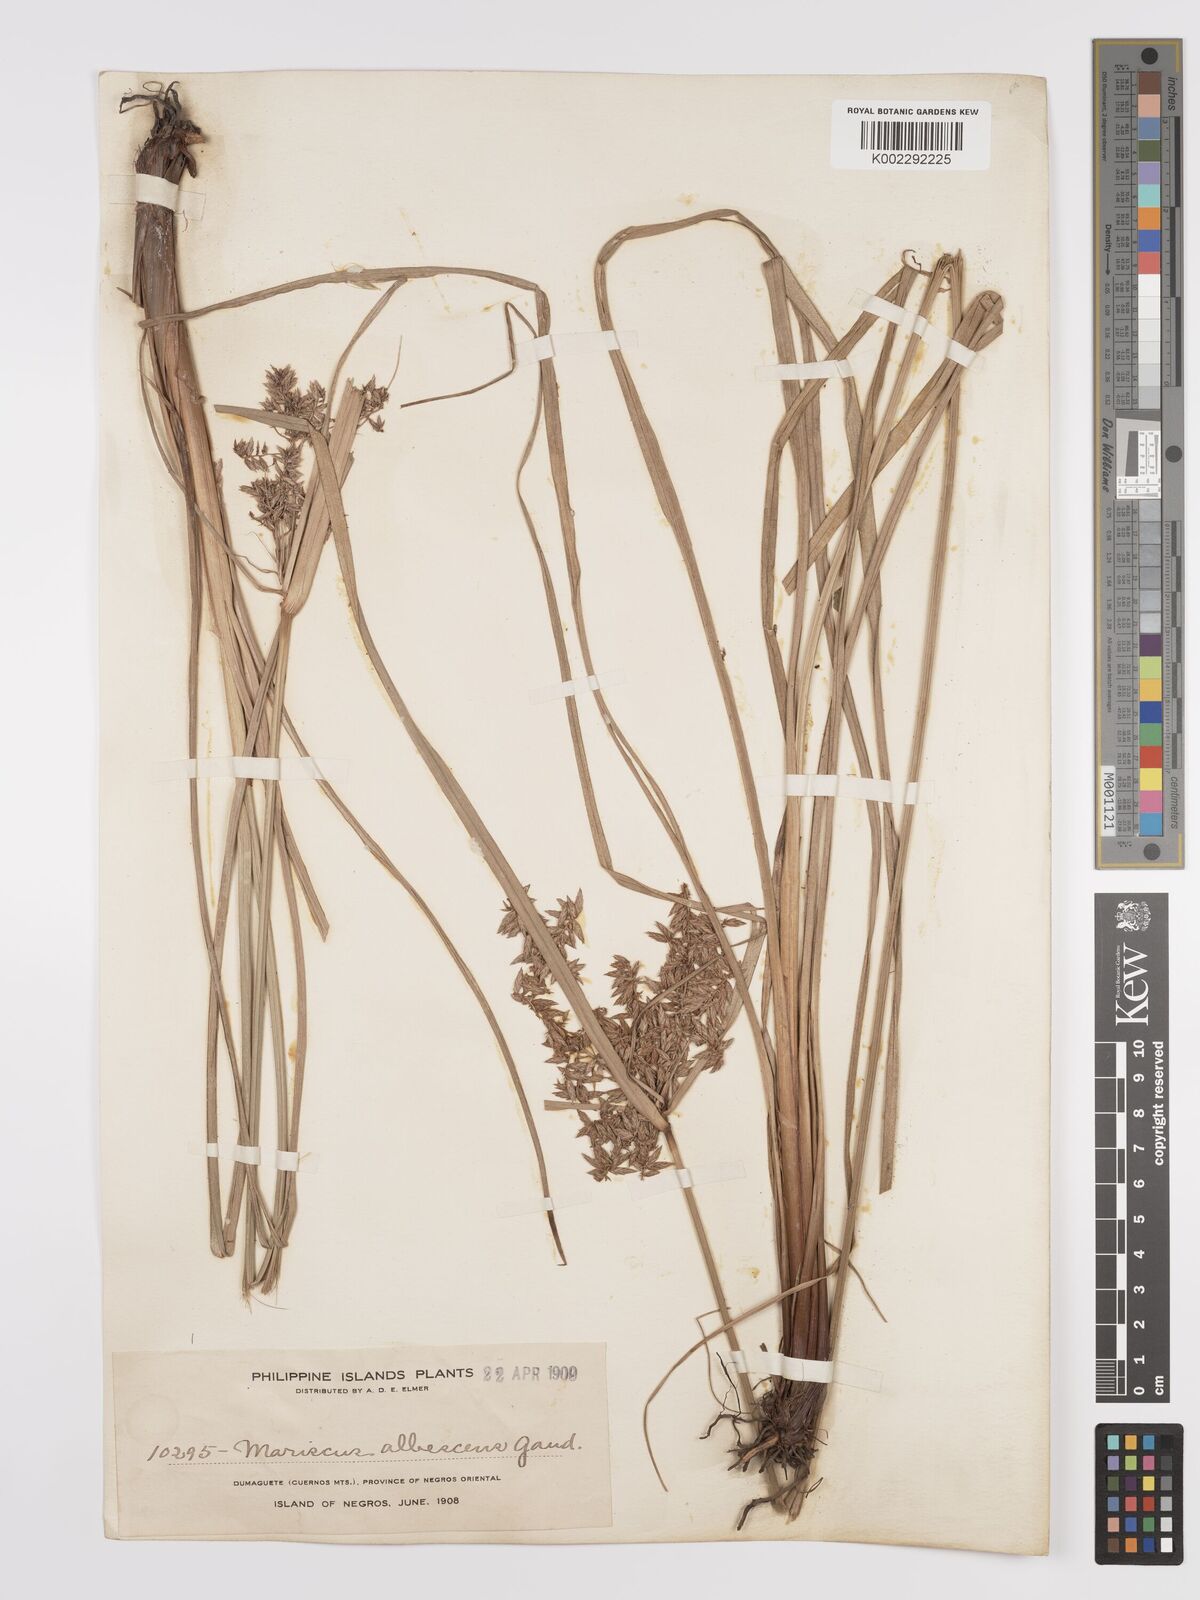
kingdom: Plantae
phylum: Tracheophyta
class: Liliopsida
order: Poales
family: Cyperaceae
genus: Cyperus
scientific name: Cyperus javanicus
